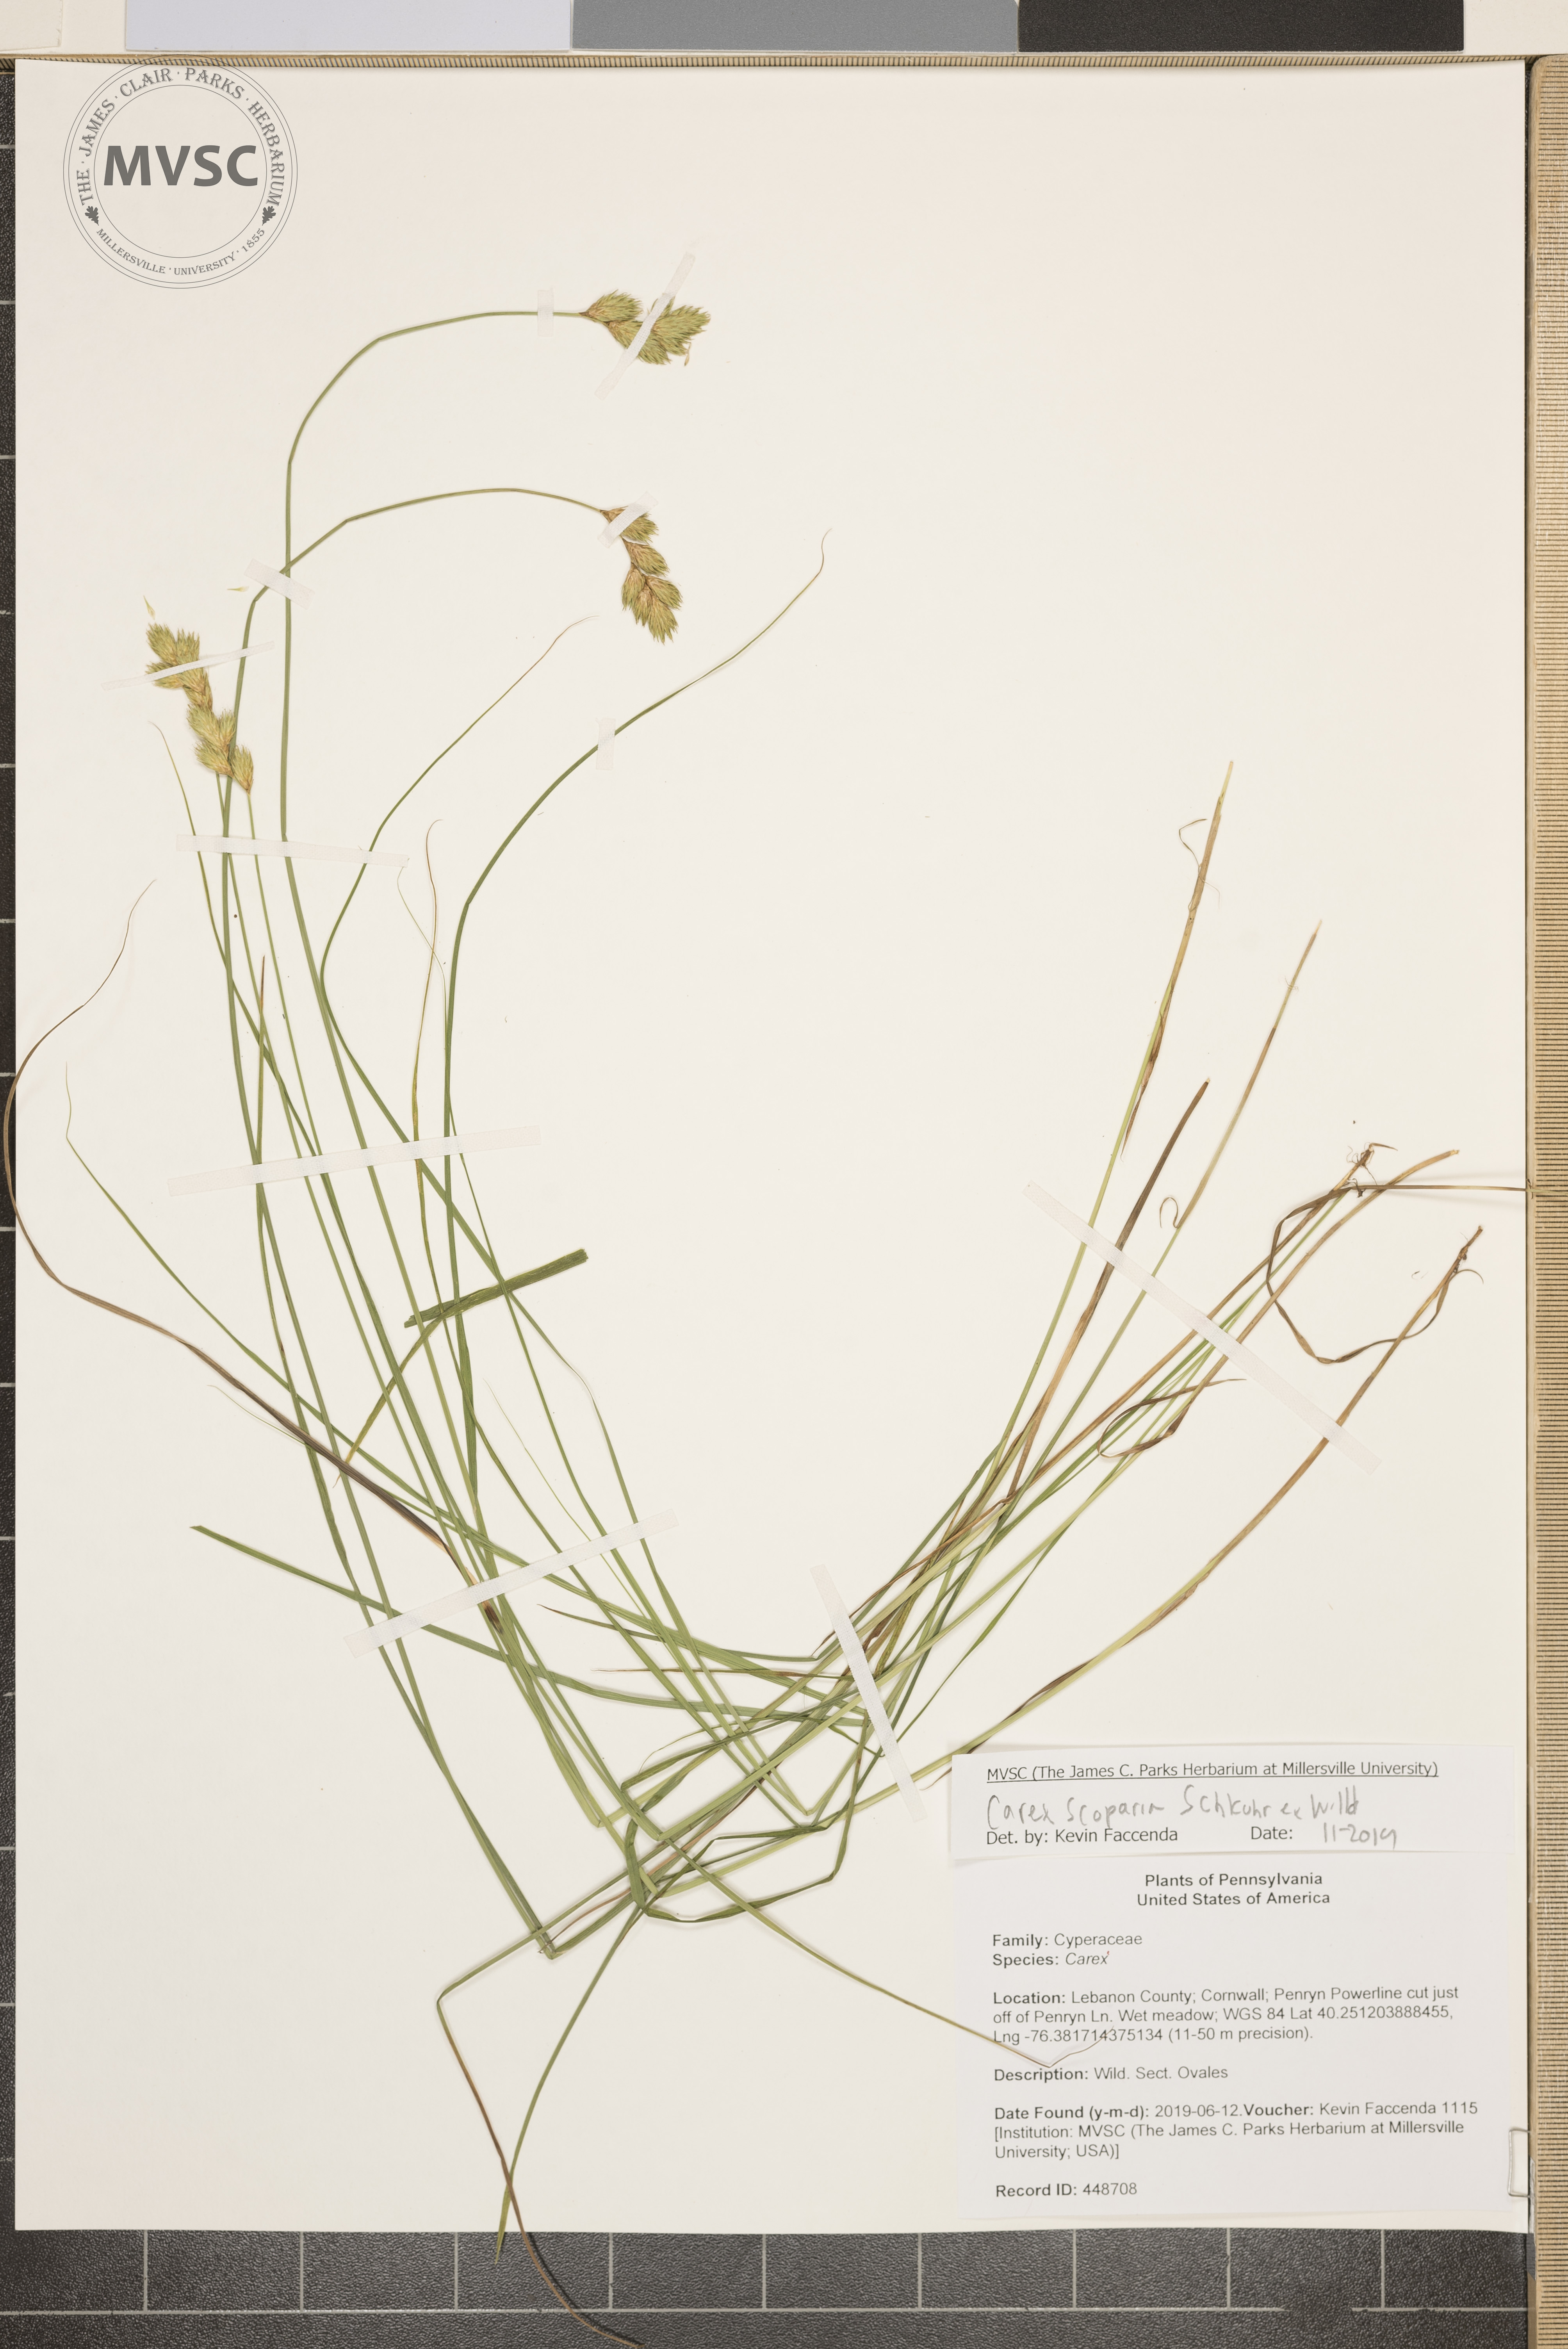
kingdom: Plantae
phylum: Tracheophyta
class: Liliopsida
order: Poales
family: Cyperaceae
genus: Carex
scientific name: Carex scoparia
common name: Broom sedge
